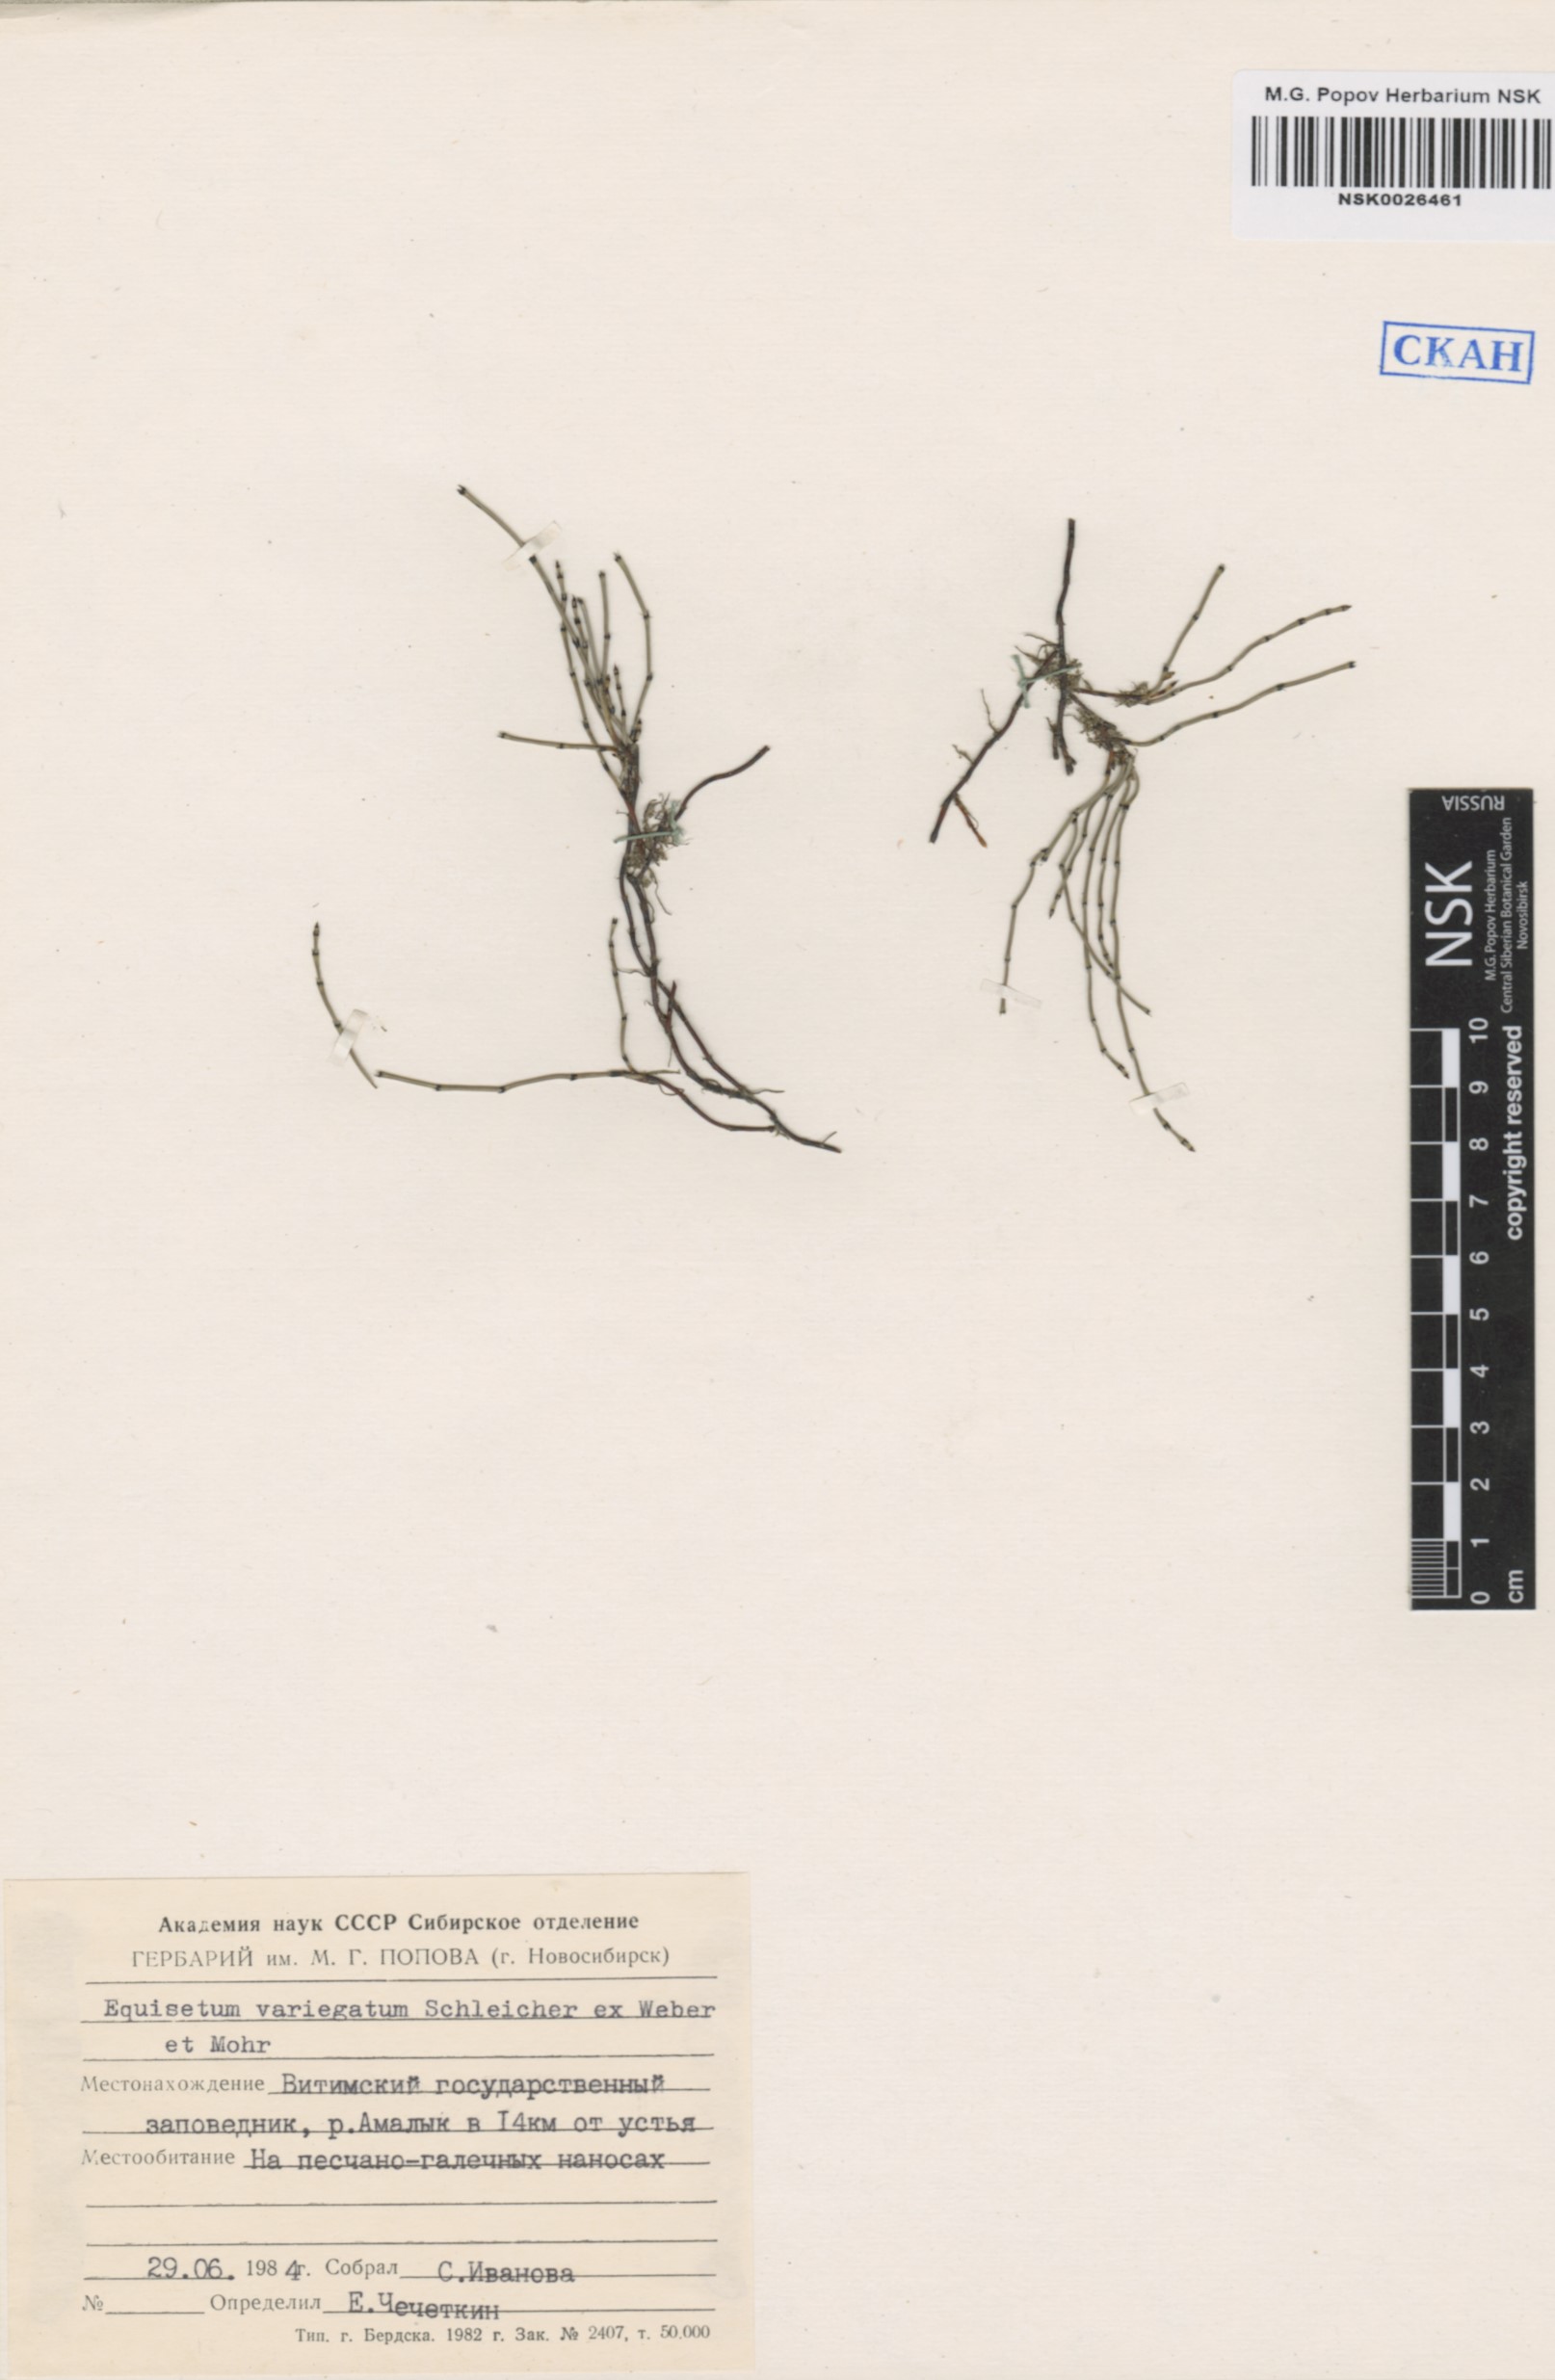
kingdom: Plantae
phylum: Tracheophyta
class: Polypodiopsida
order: Equisetales
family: Equisetaceae
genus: Equisetum
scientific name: Equisetum variegatum
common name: Variegated horsetail
